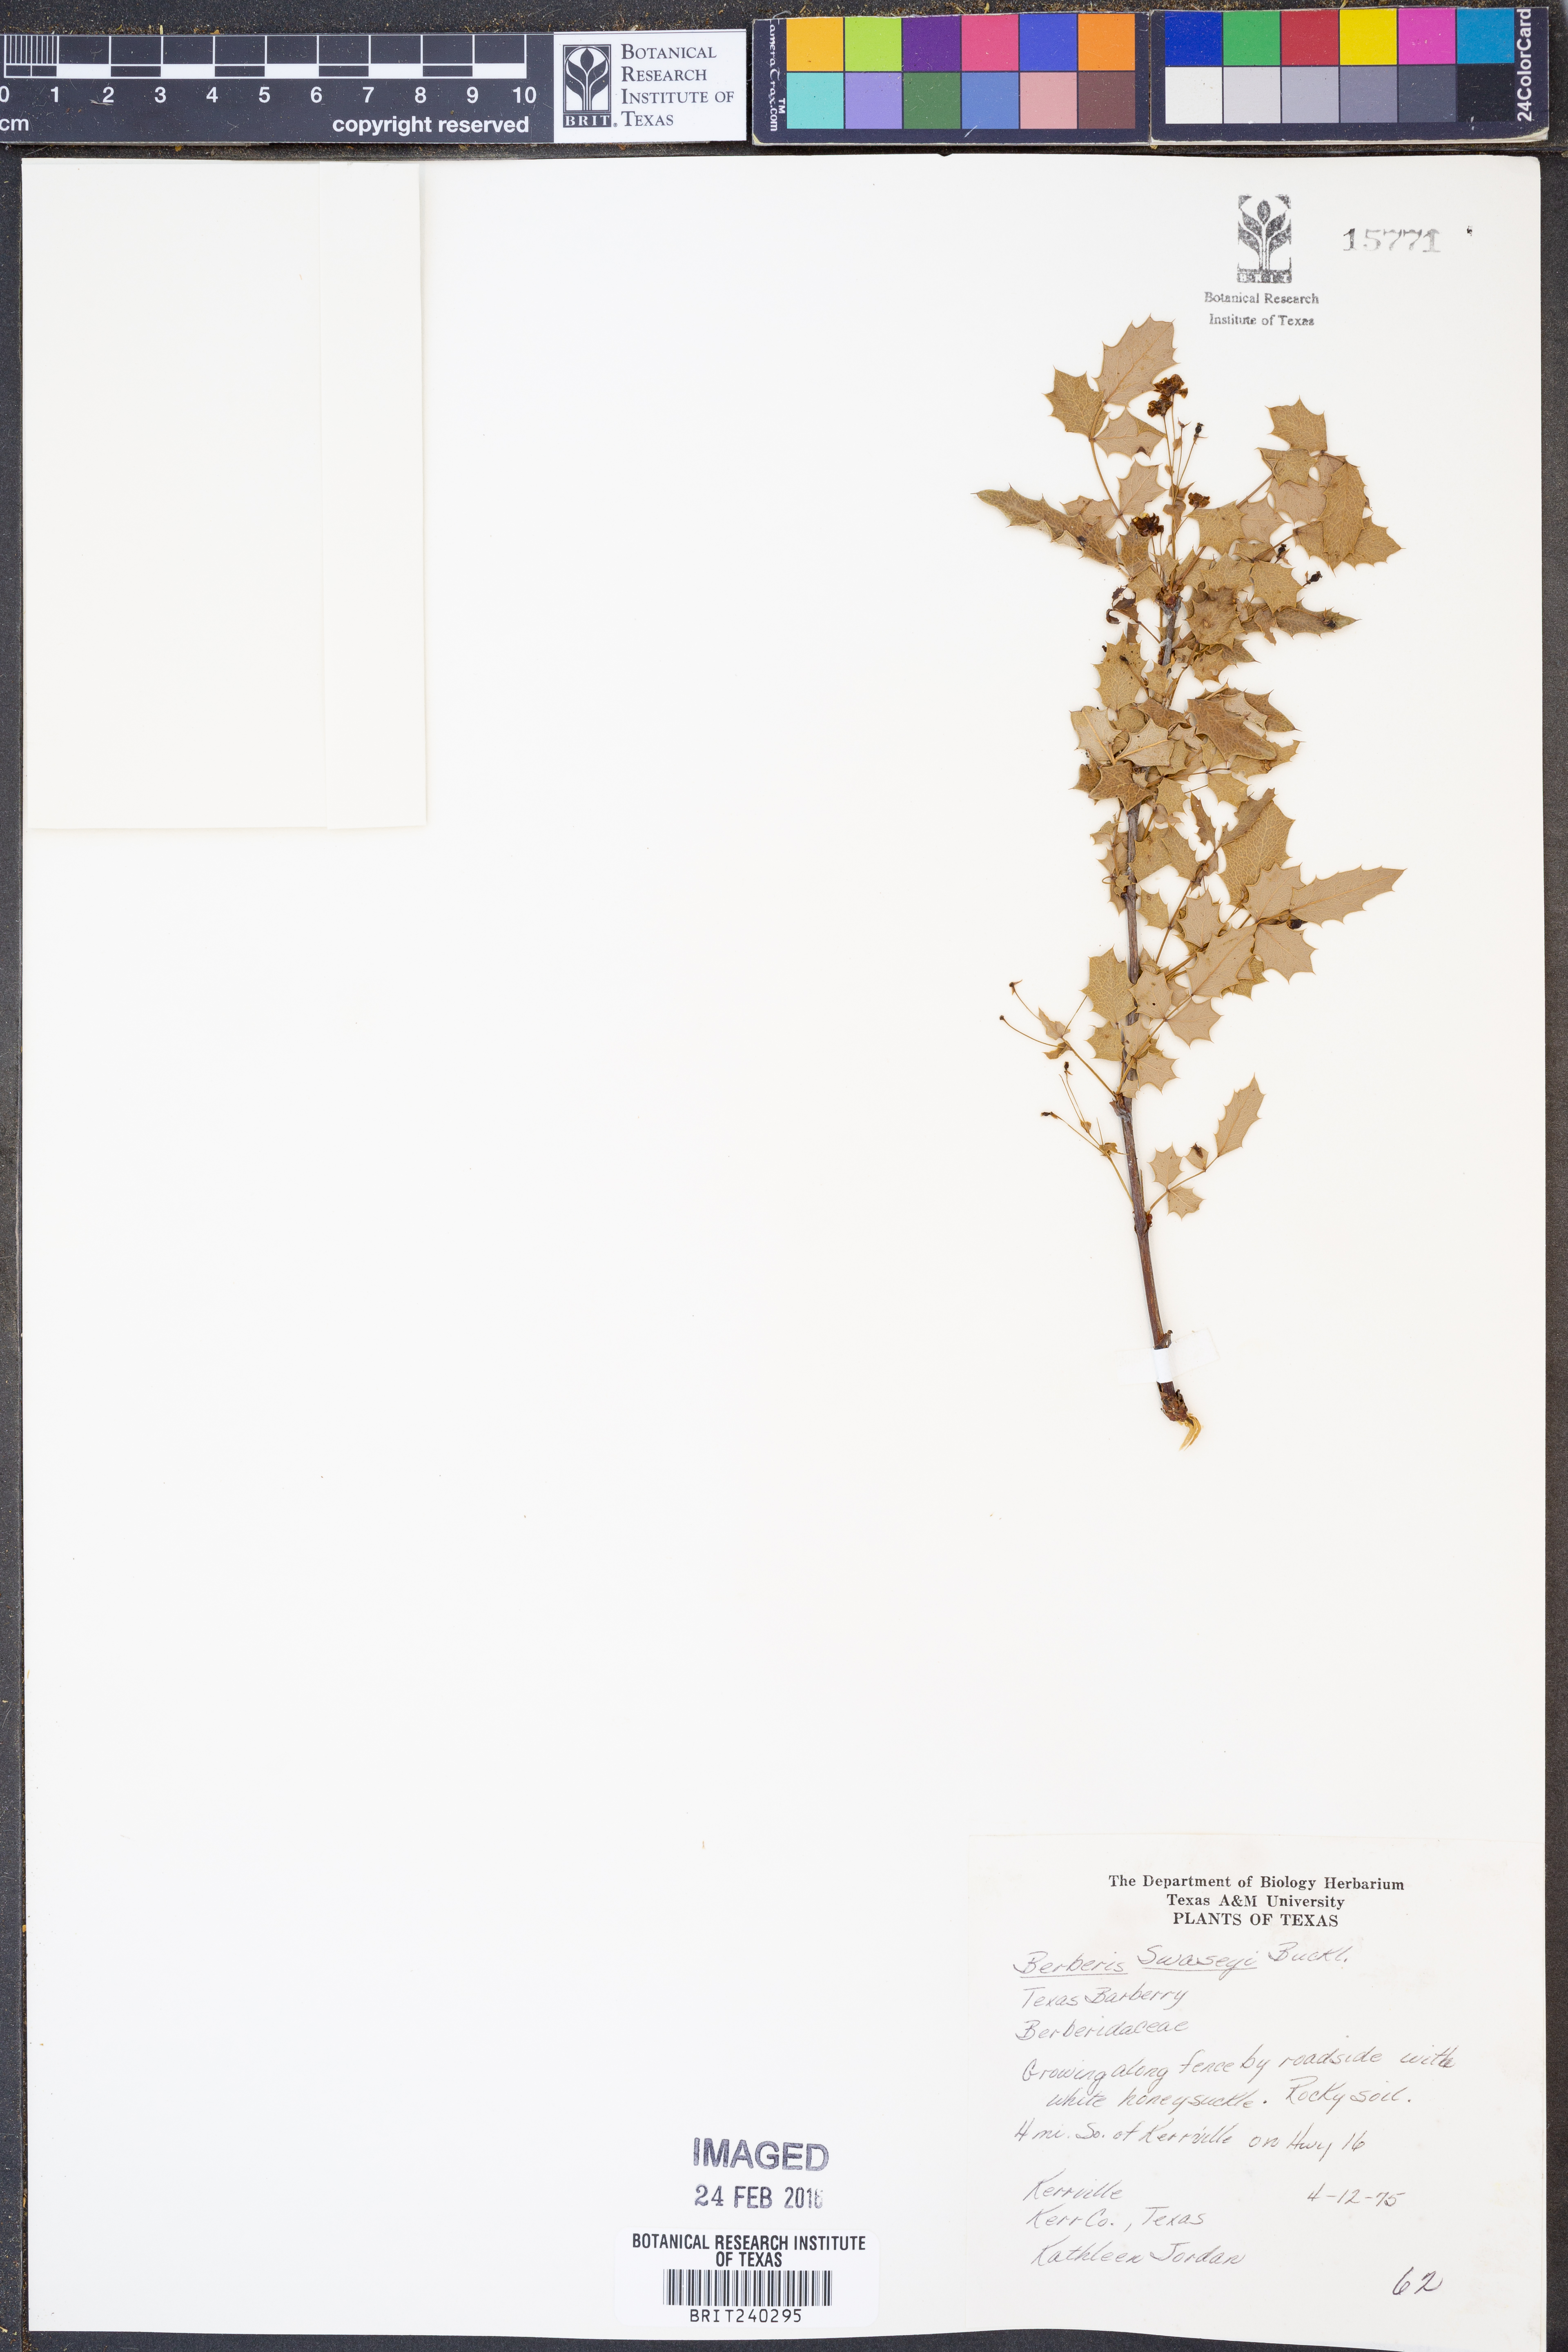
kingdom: Plantae
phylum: Tracheophyta
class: Magnoliopsida
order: Ranunculales
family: Berberidaceae
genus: Berberis
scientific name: Berberis swaseyi
